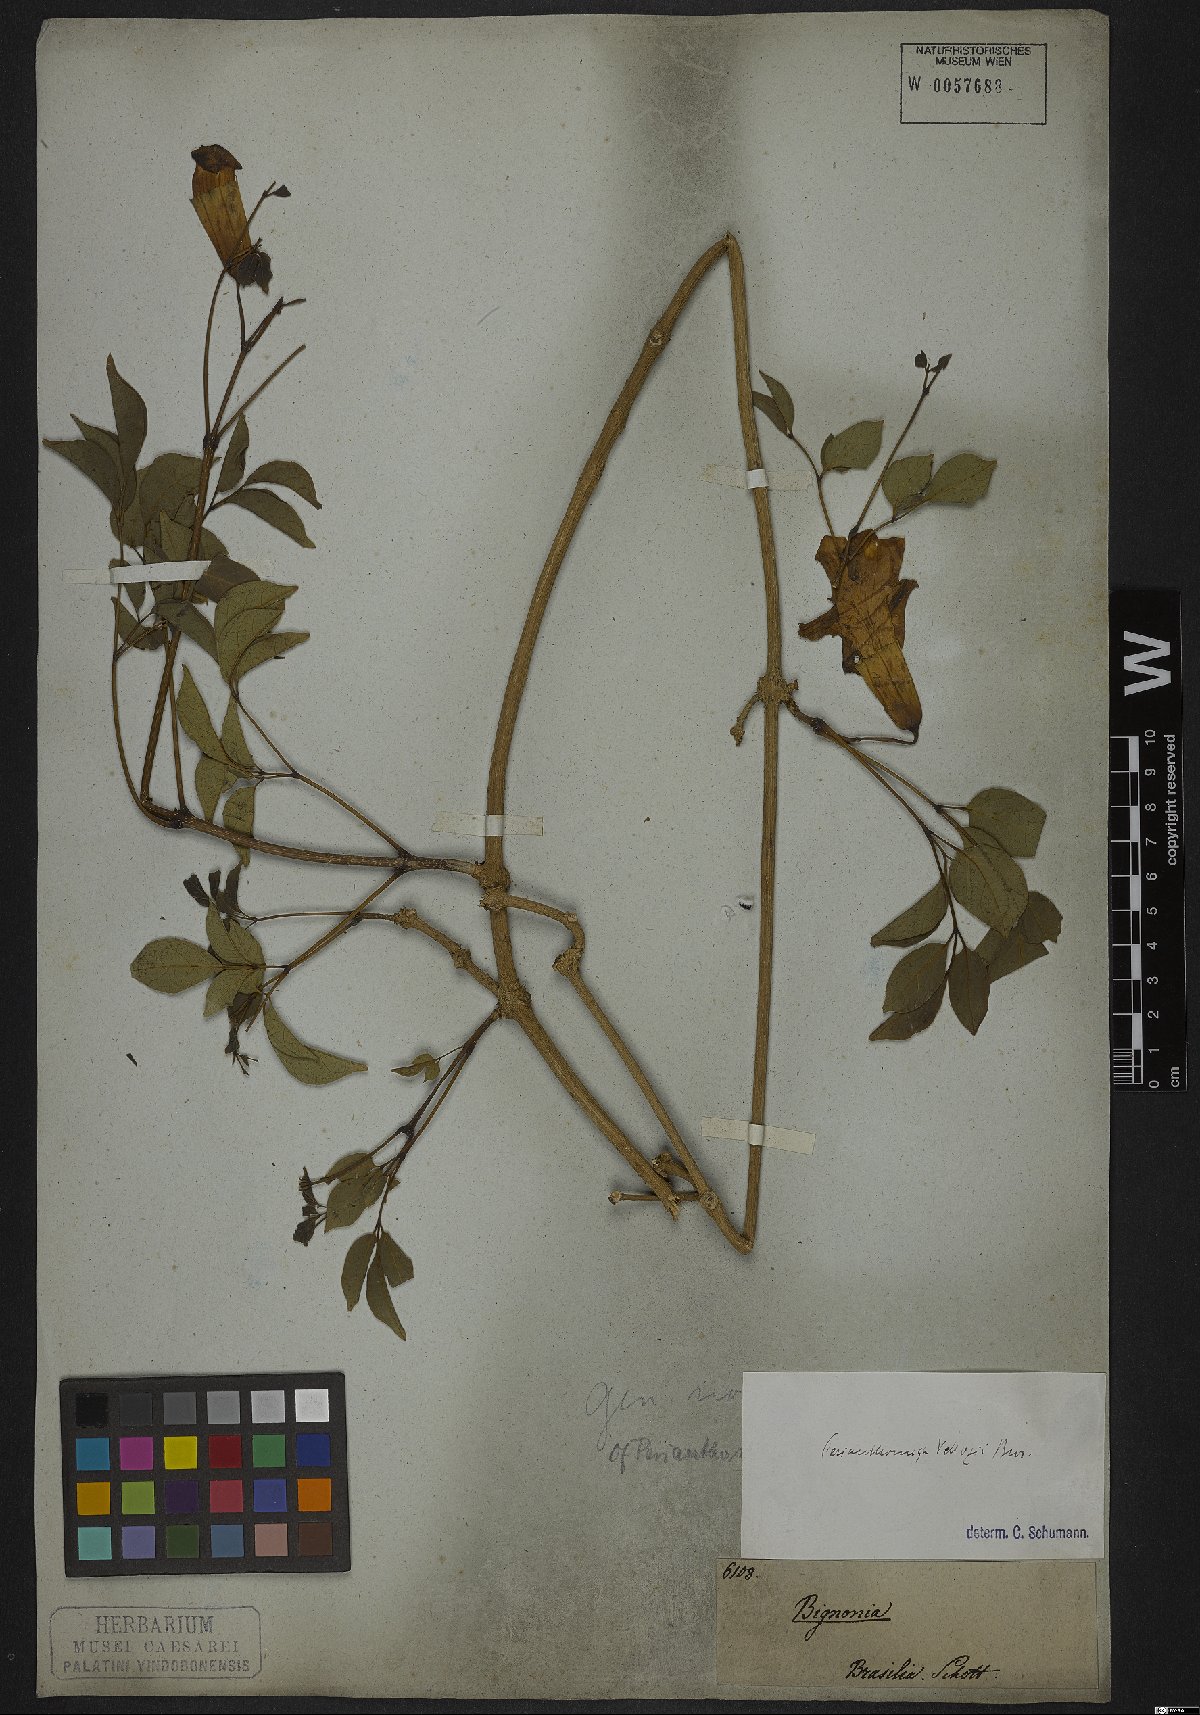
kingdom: Plantae
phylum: Tracheophyta
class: Magnoliopsida
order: Lamiales
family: Bignoniaceae
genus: Perianthomega
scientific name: Perianthomega vellozoi
